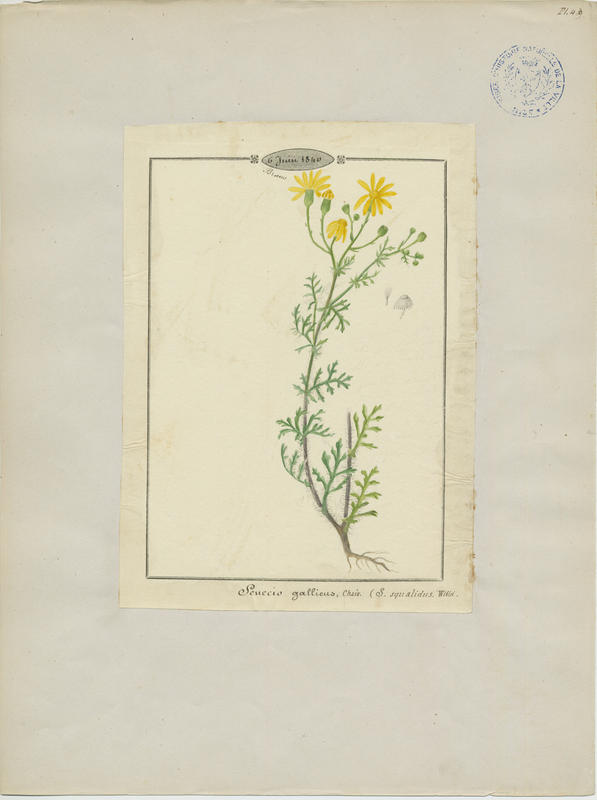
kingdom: Plantae
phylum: Tracheophyta
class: Magnoliopsida
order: Asterales
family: Asteraceae
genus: Senecio
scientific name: Senecio squalidus
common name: Oxford ragwort
